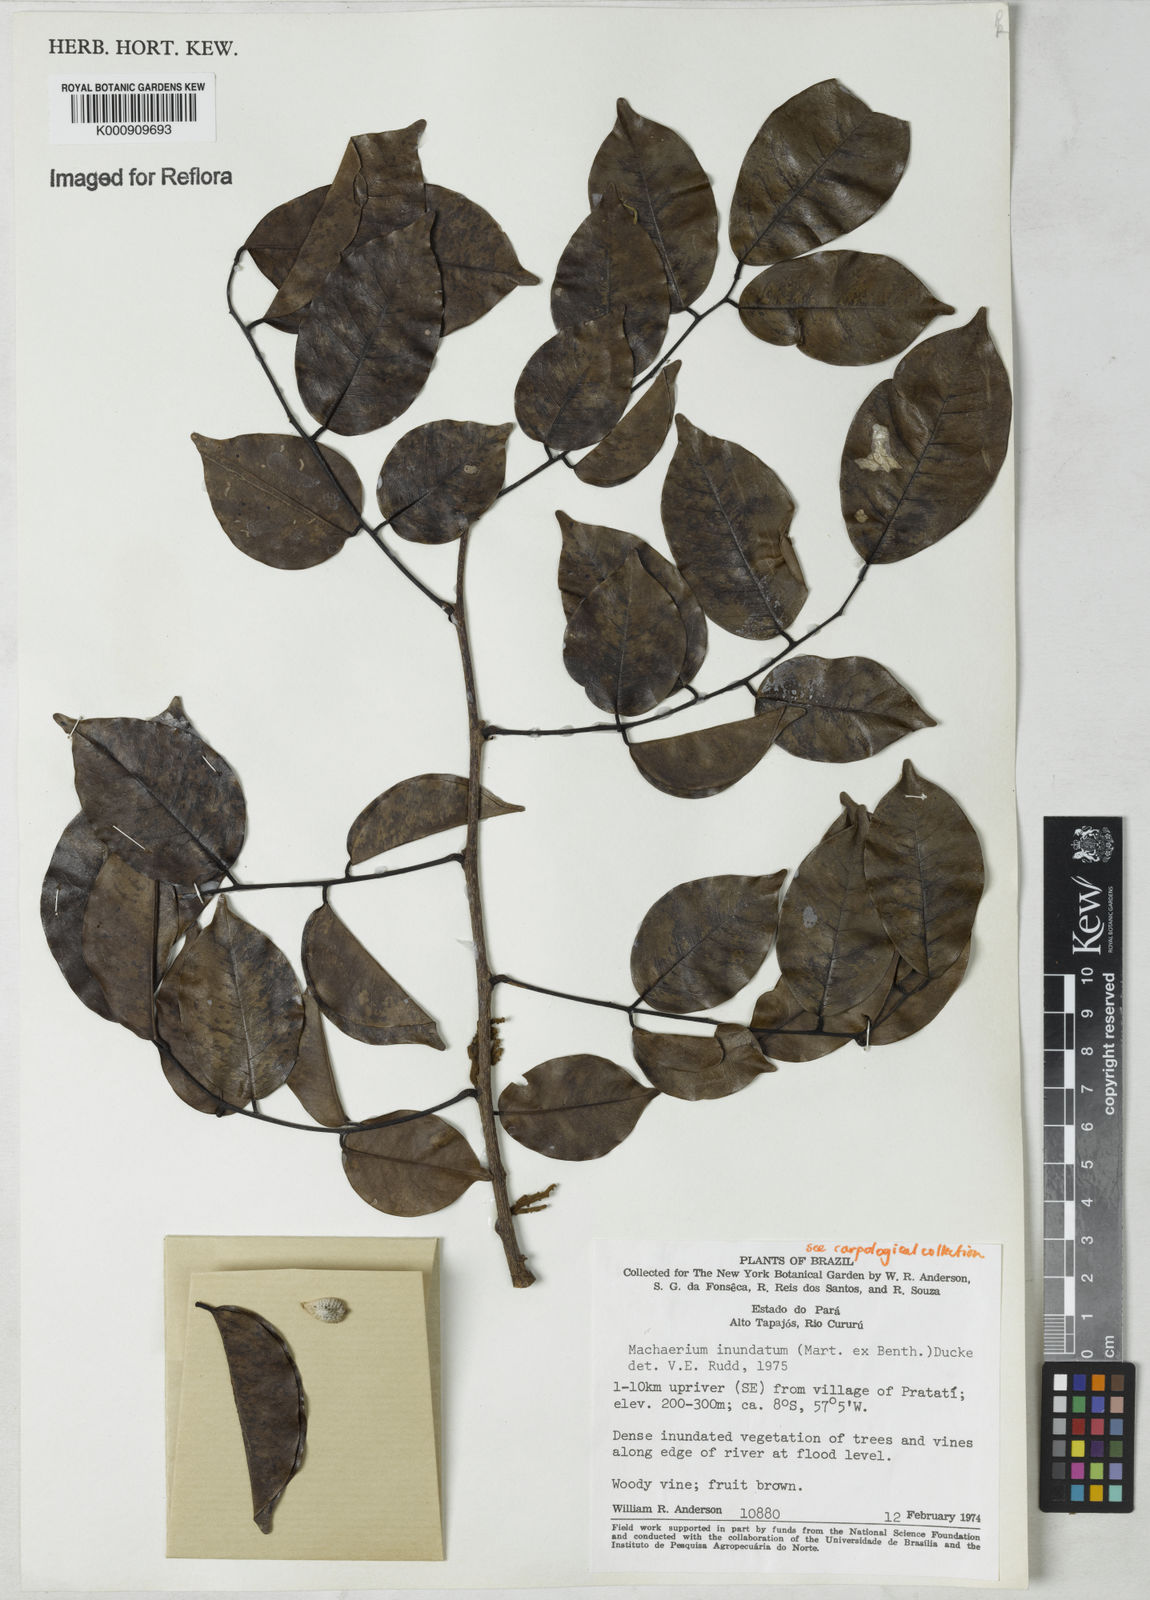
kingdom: Plantae
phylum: Tracheophyta
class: Magnoliopsida
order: Fabales
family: Fabaceae
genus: Machaerium
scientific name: Machaerium inundatum
